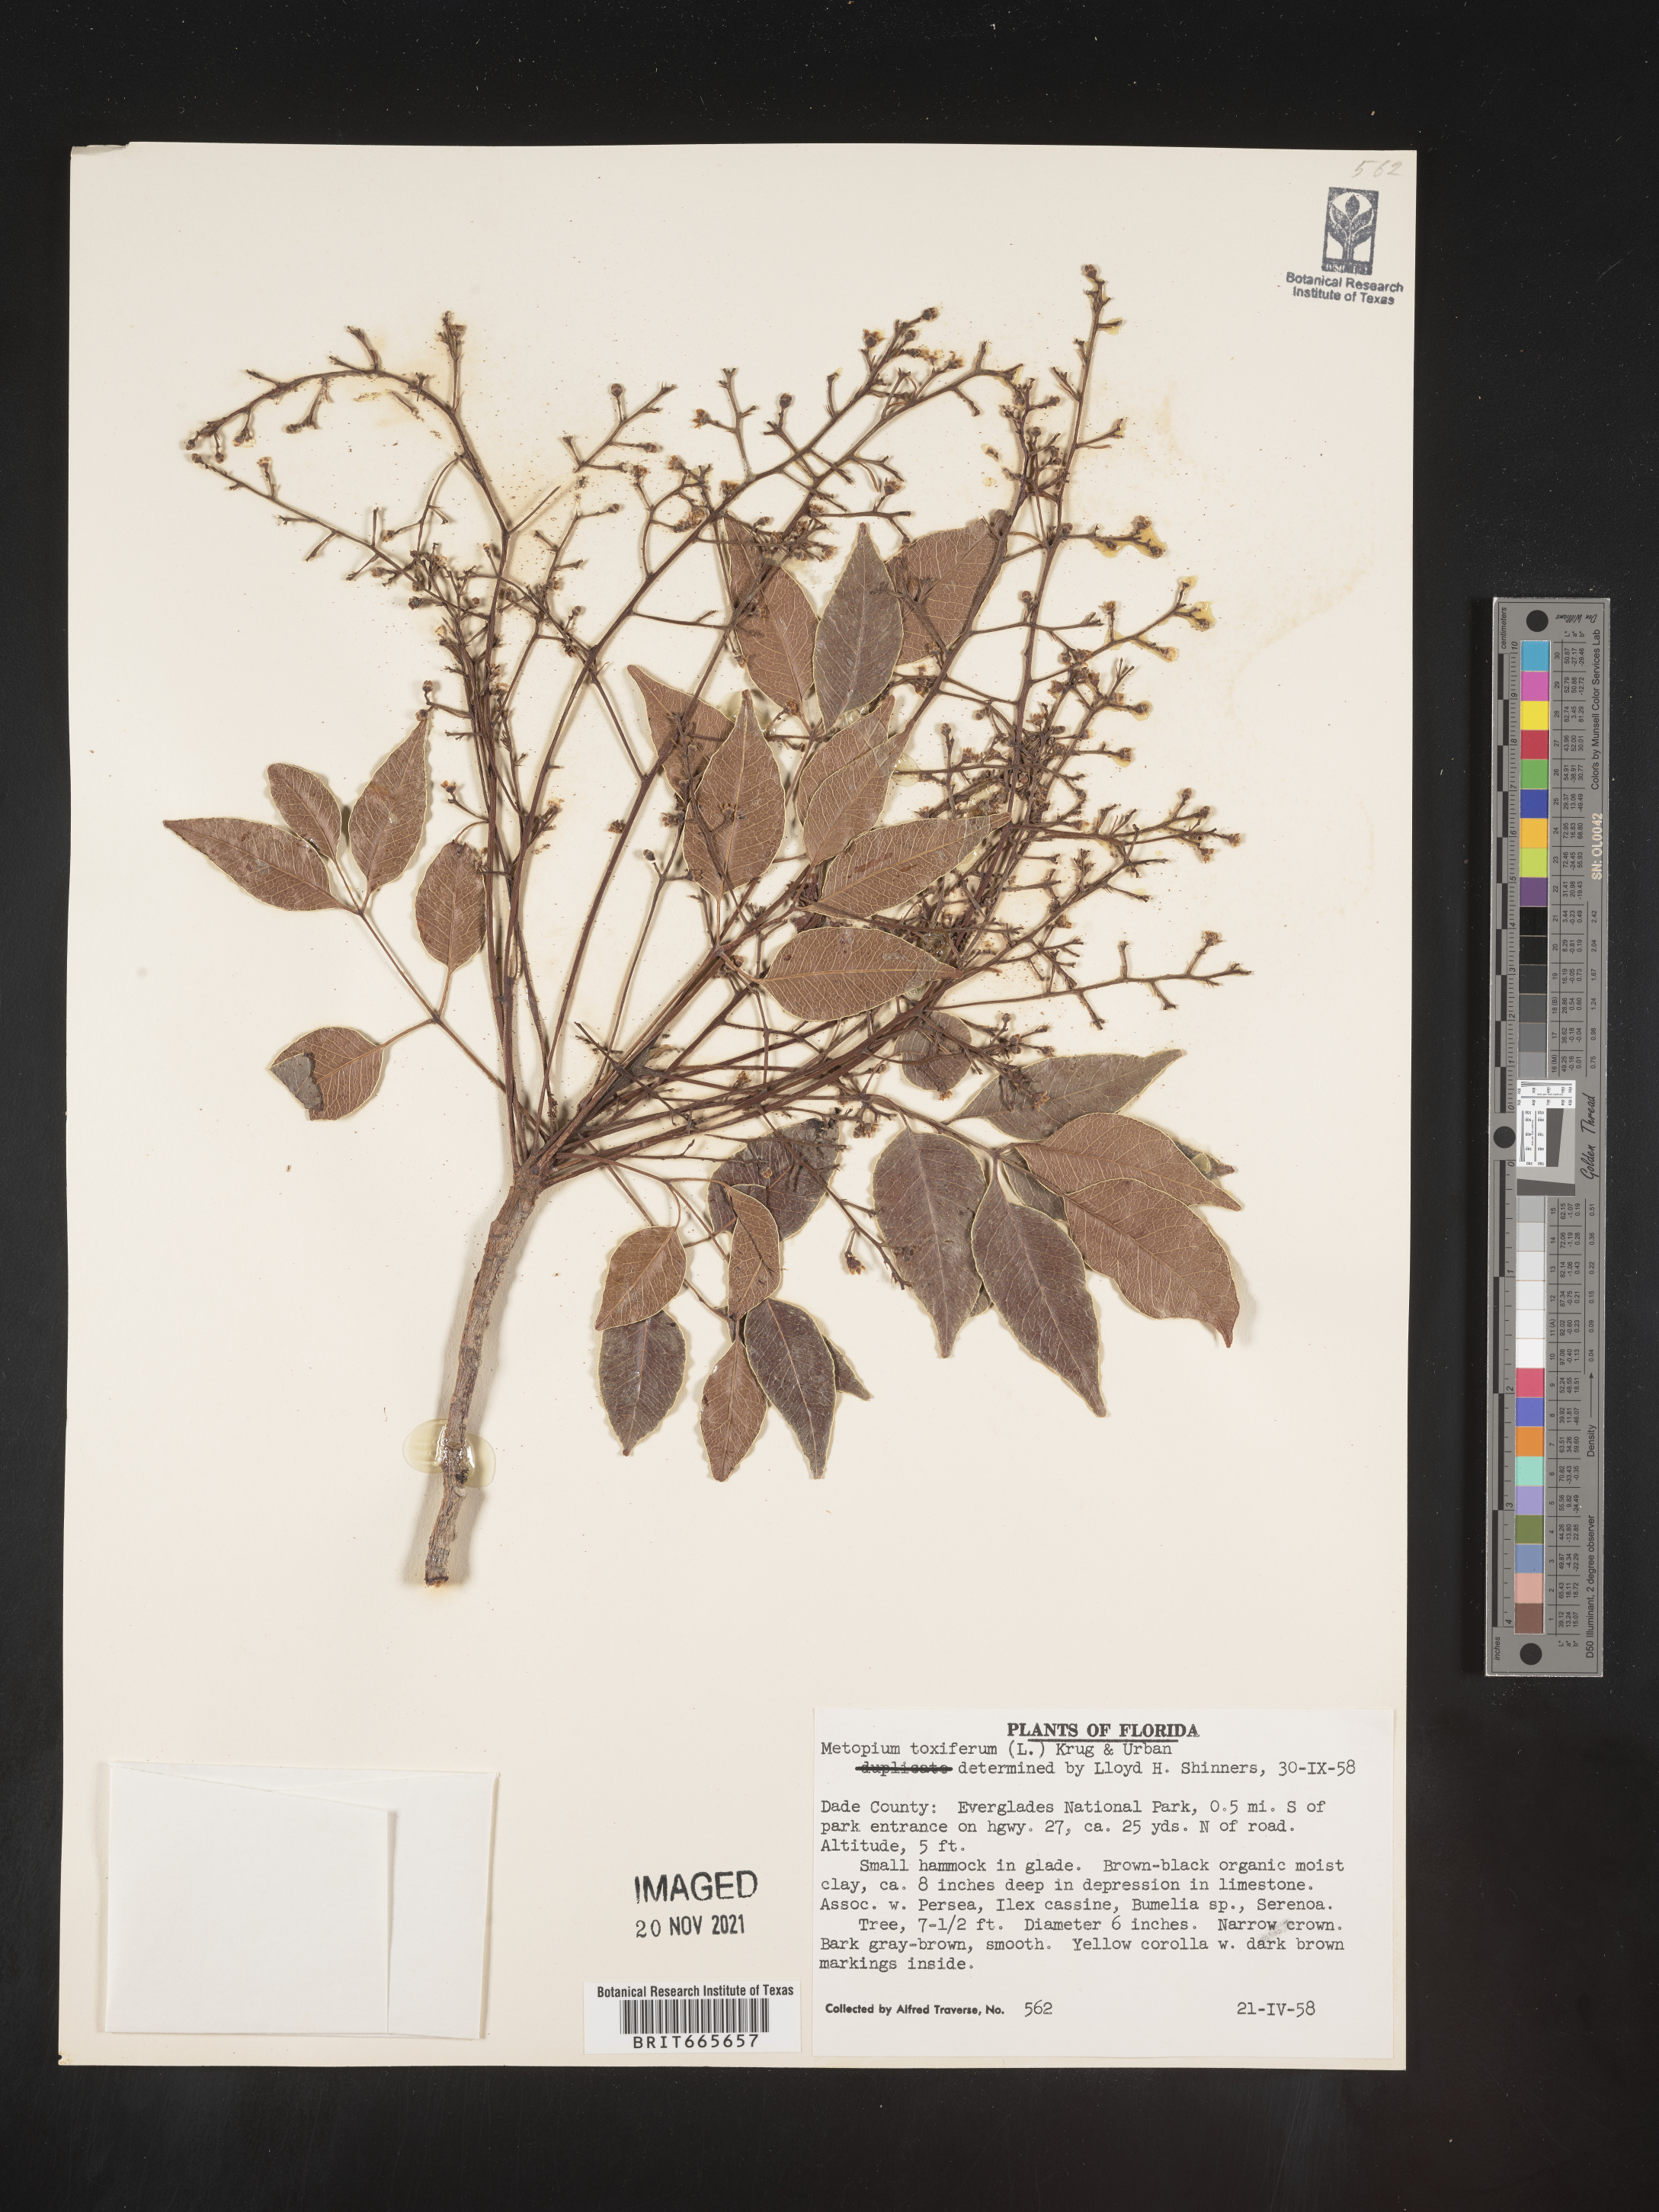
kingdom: Plantae
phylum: Tracheophyta
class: Magnoliopsida
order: Sapindales
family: Anacardiaceae
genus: Metopium
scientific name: Metopium
